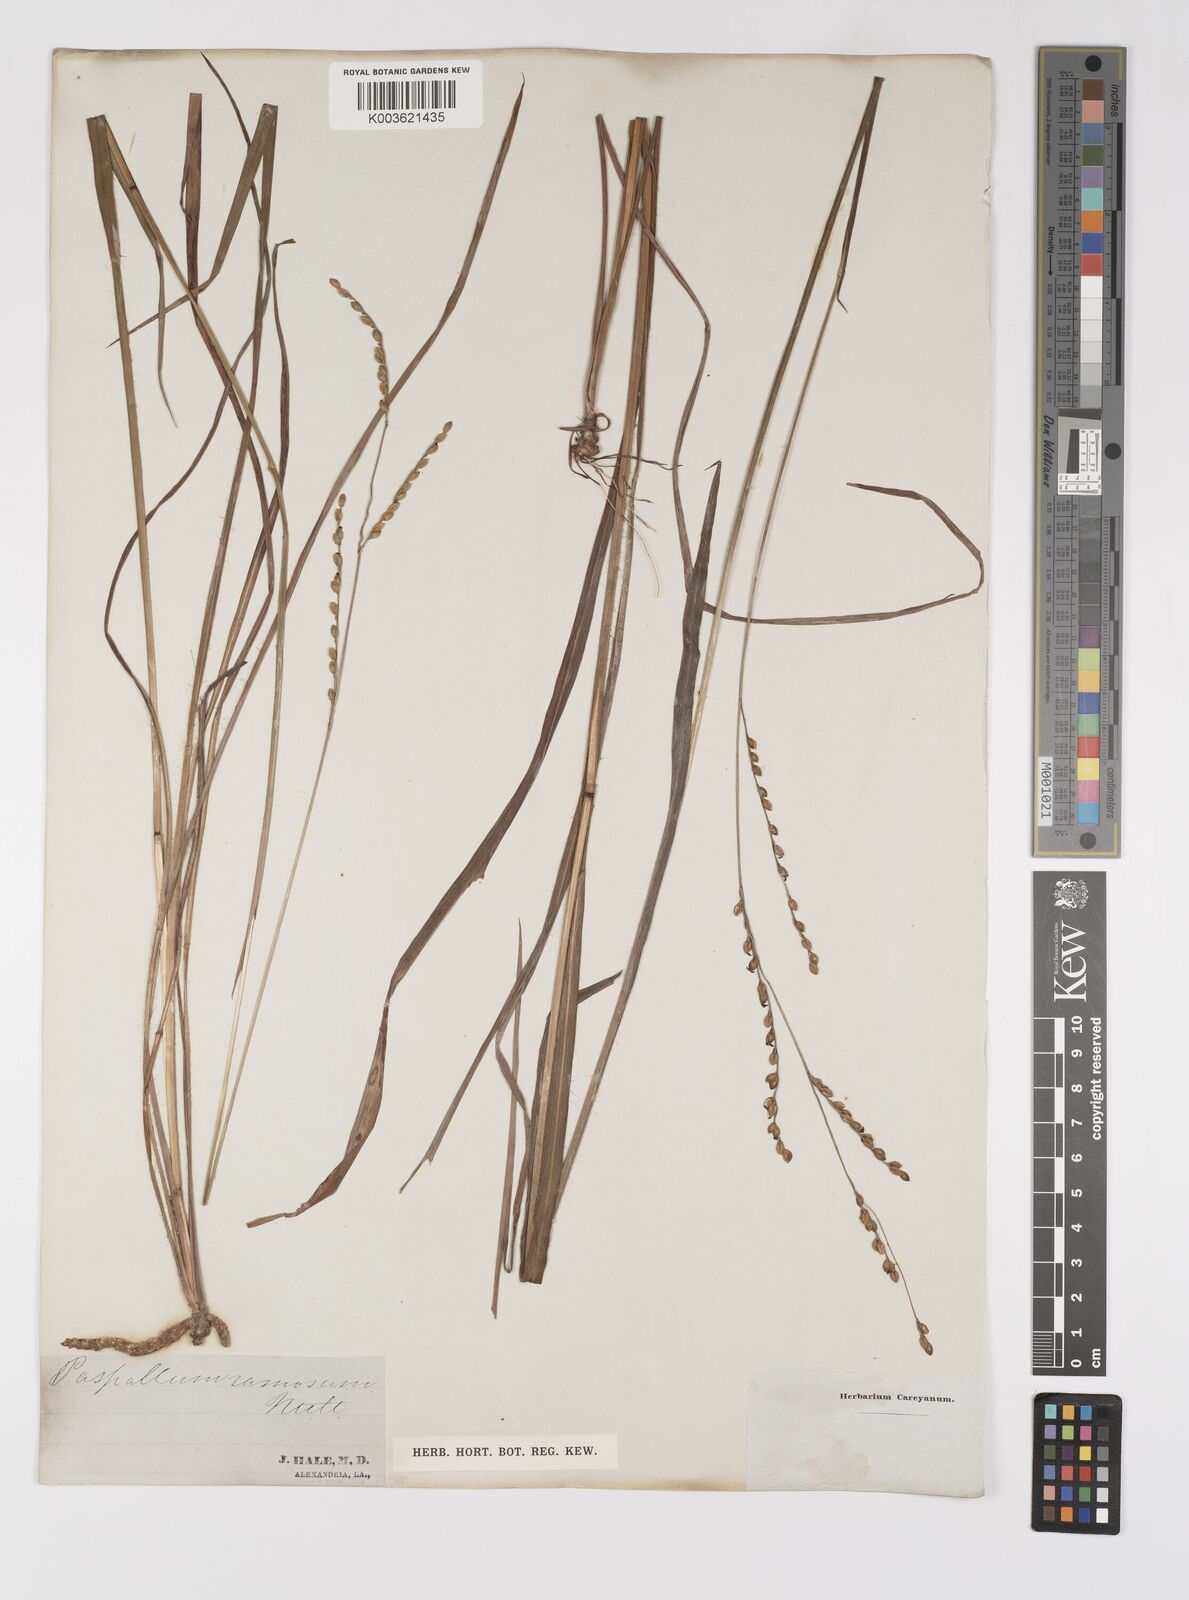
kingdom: Plantae
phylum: Tracheophyta
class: Liliopsida
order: Poales
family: Poaceae
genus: Paspalum
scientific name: Paspalum
